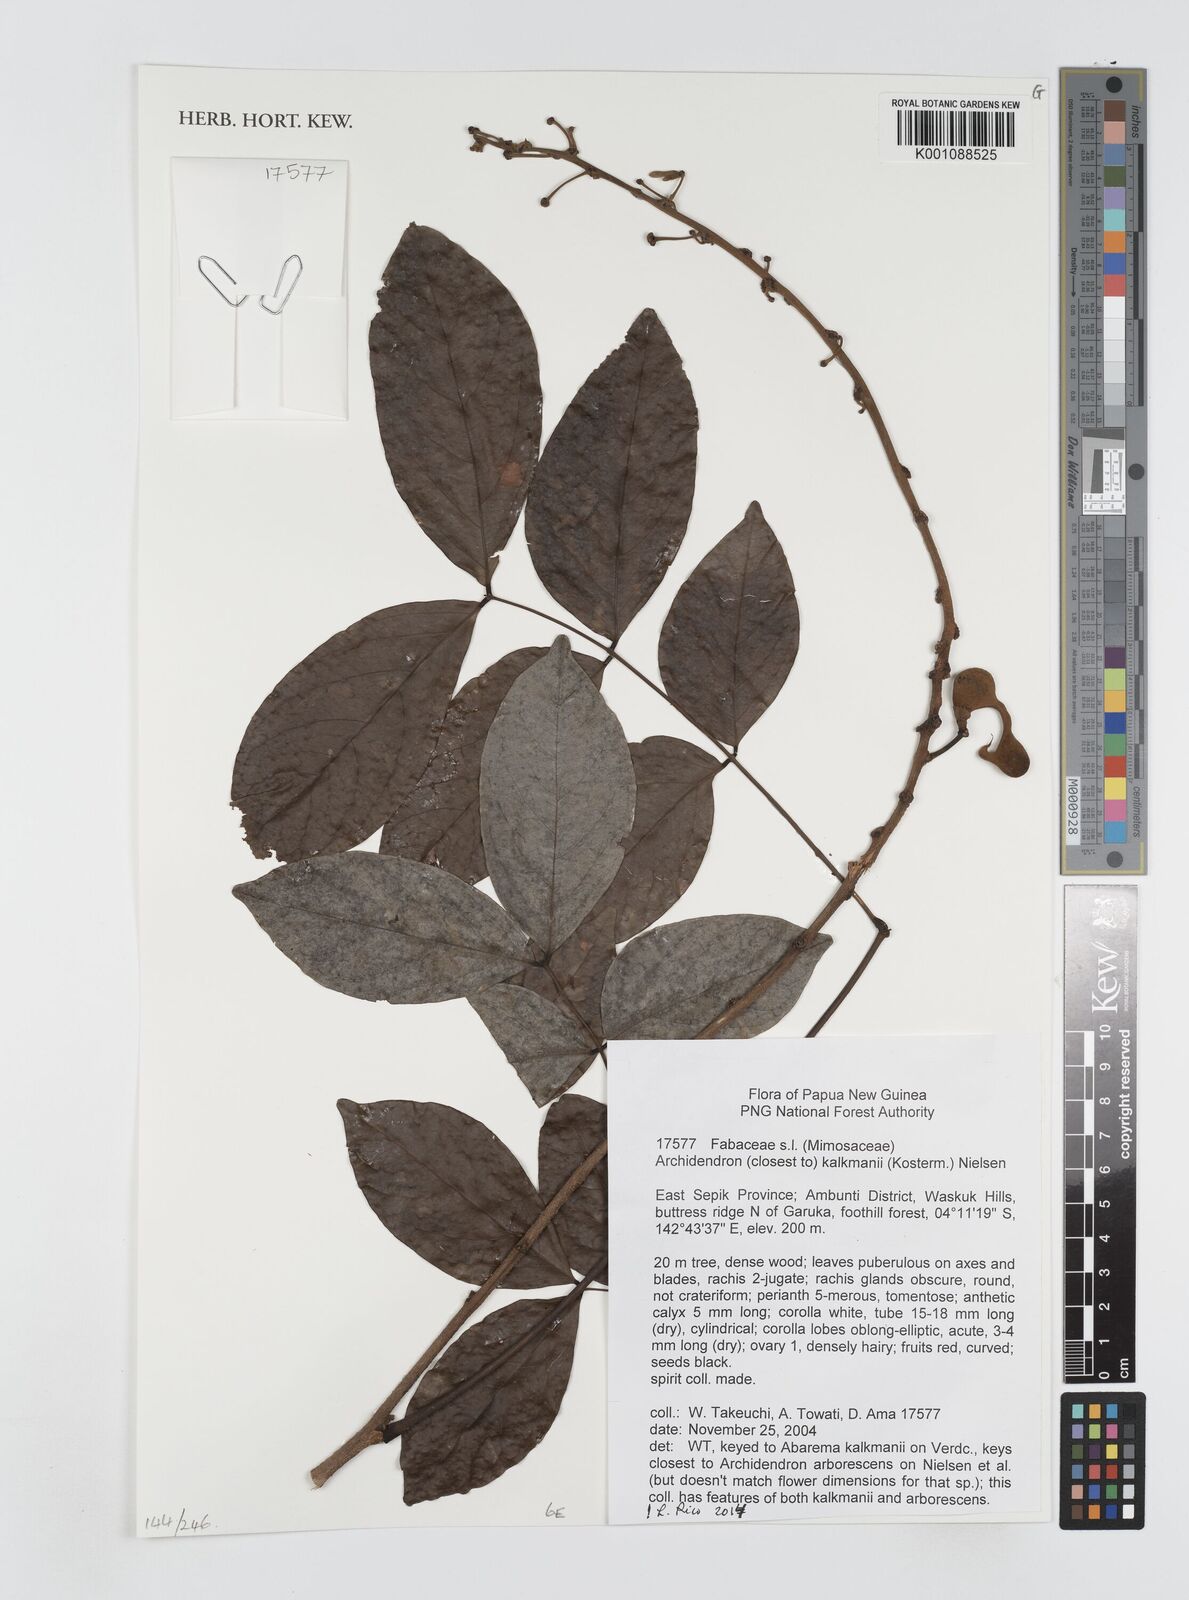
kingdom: Plantae
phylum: Tracheophyta
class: Magnoliopsida
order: Fabales
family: Fabaceae
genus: Archidendron
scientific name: Archidendron
